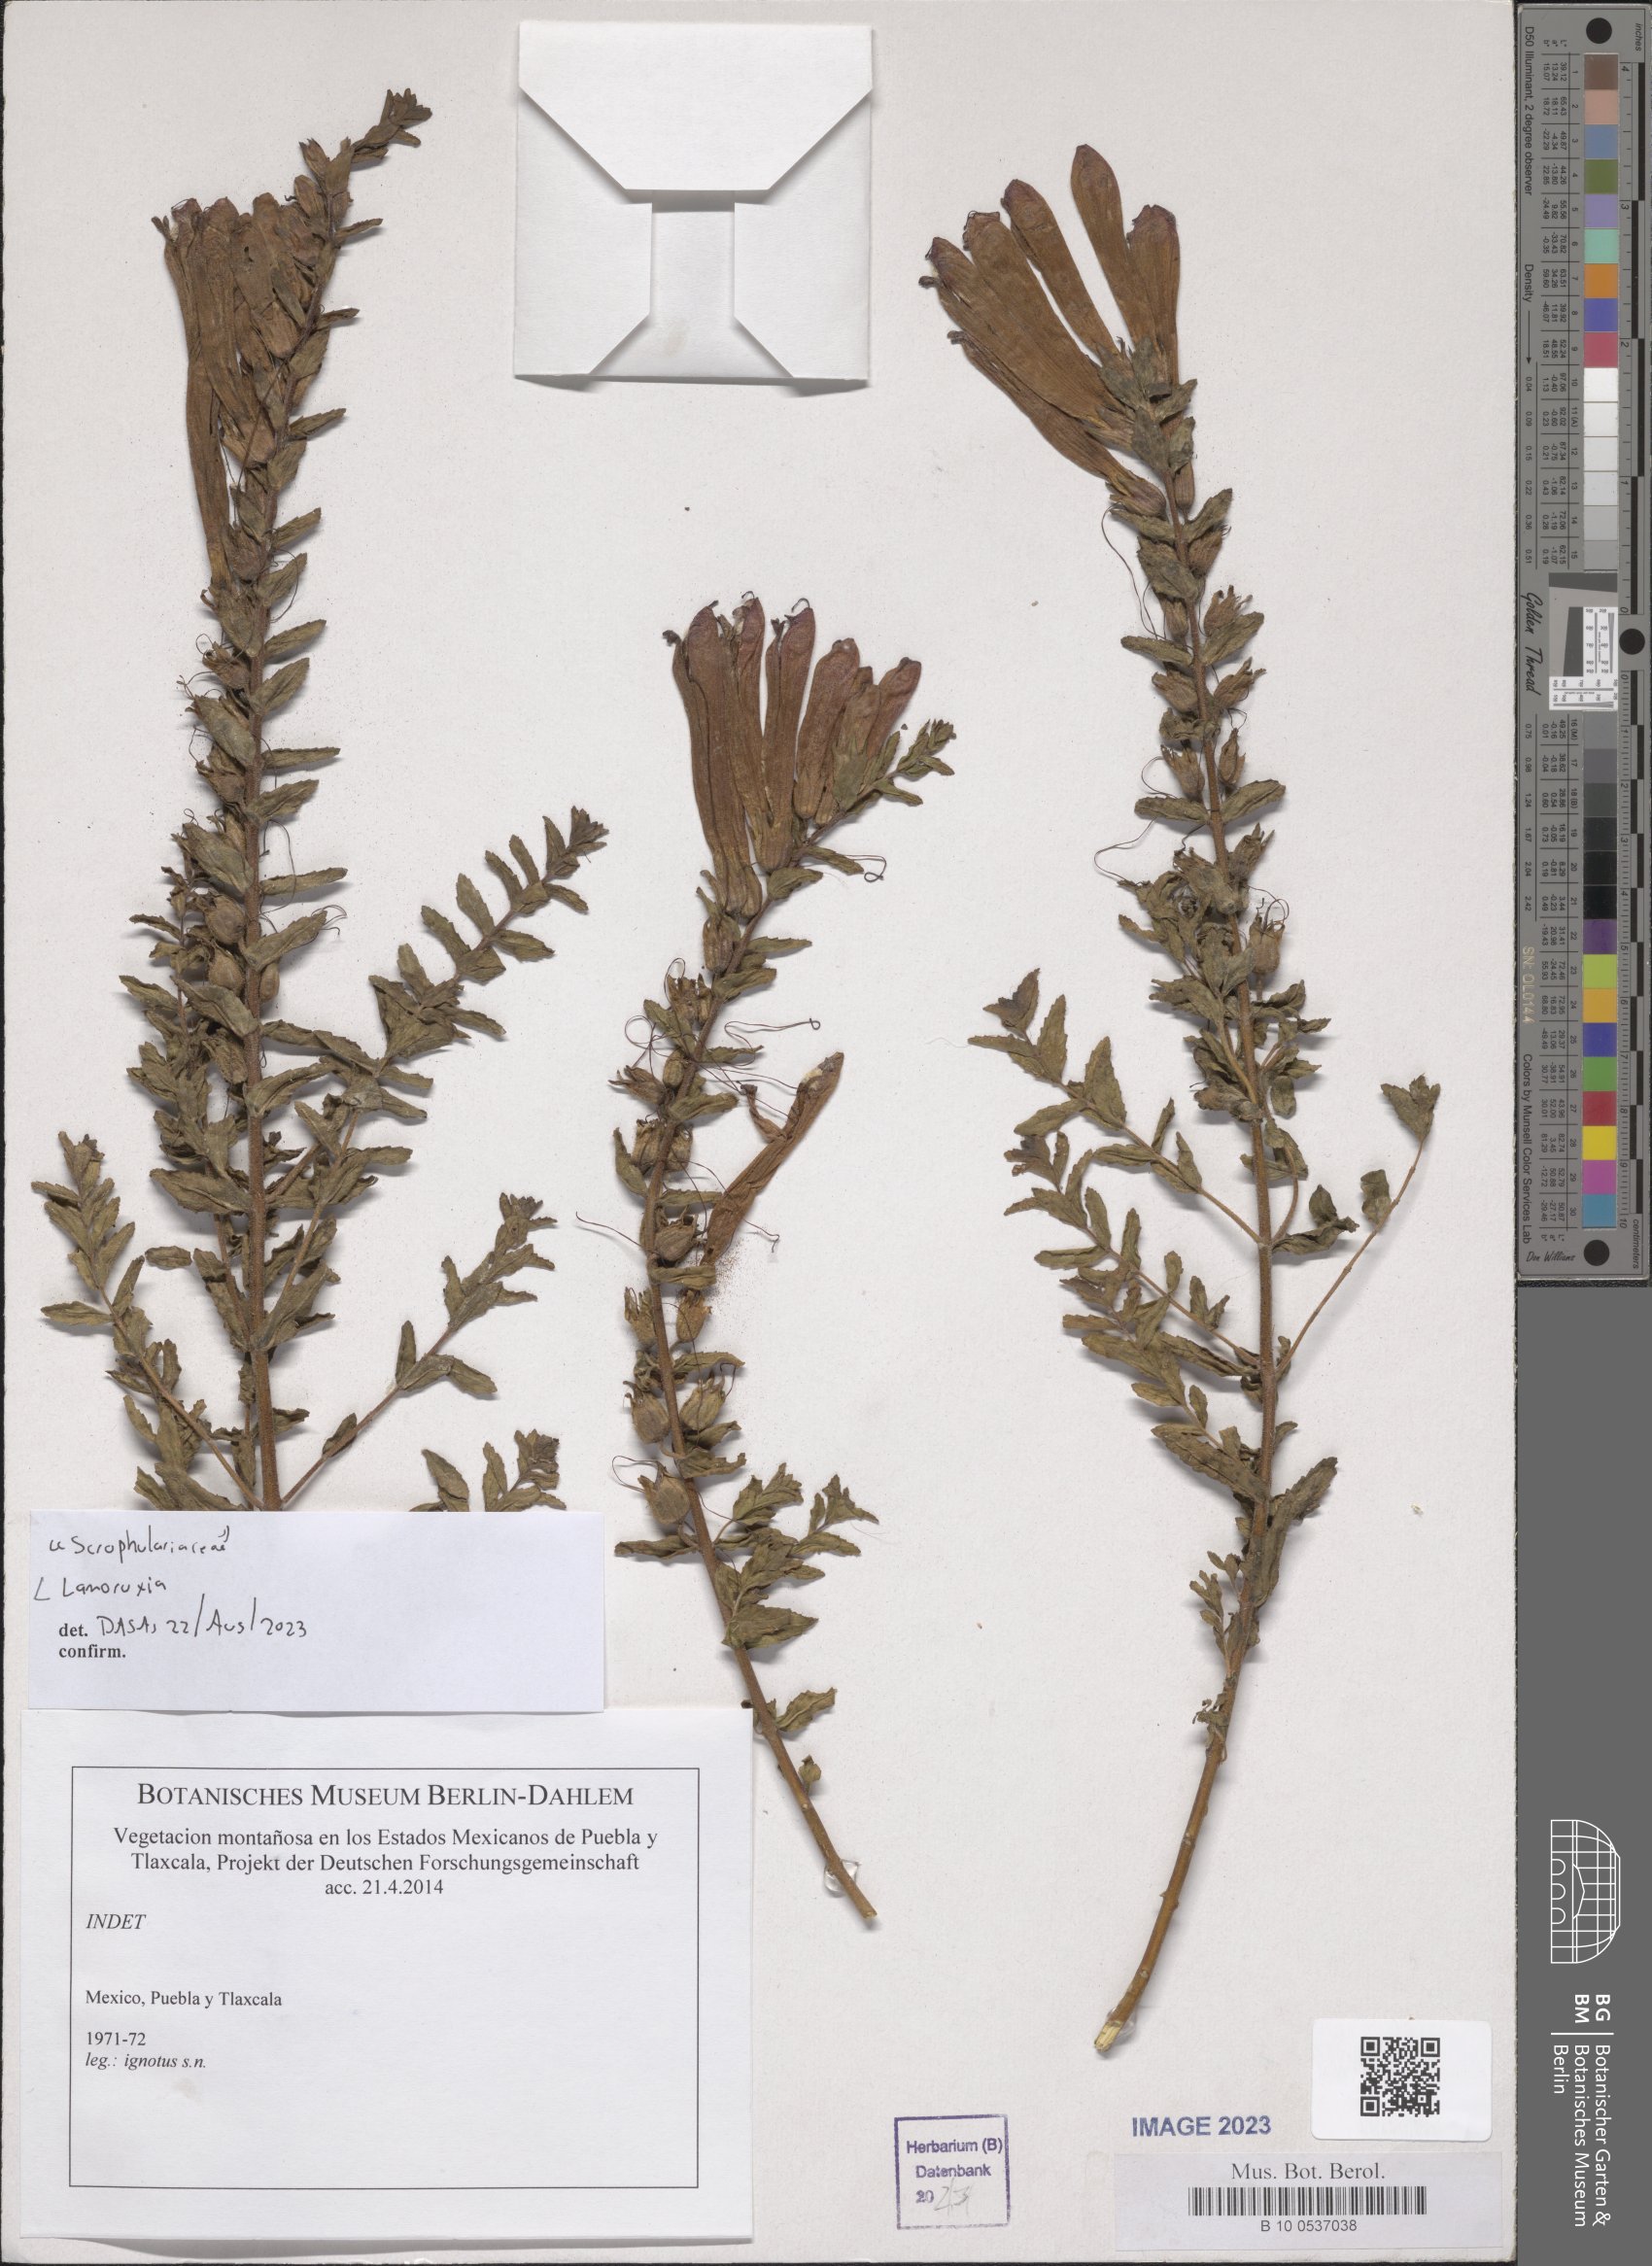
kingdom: Plantae
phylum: Tracheophyta
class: Magnoliopsida
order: Lamiales
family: Orobanchaceae
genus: Lamourouxia
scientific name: Lamourouxia
